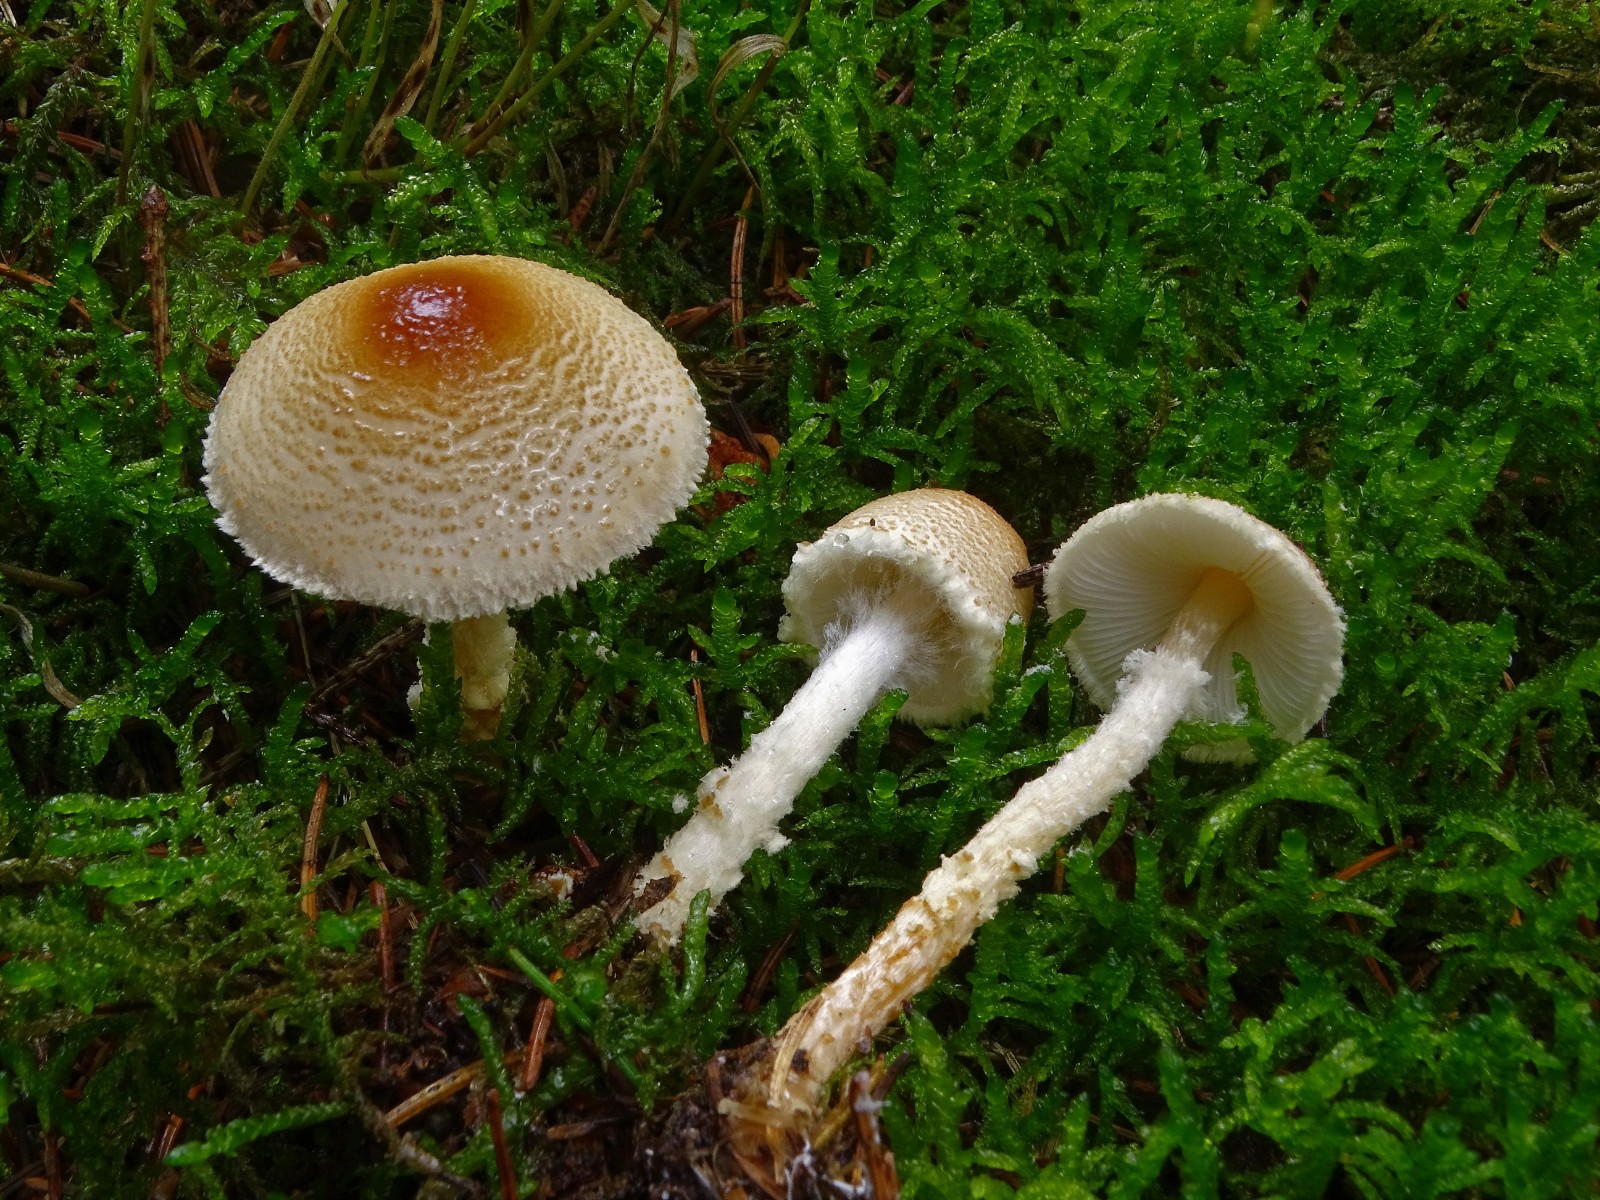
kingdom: Fungi
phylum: Basidiomycota
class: Agaricomycetes
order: Agaricales
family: Agaricaceae
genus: Lepiota
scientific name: Lepiota magnispora
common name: gulfnugget parasolhat
